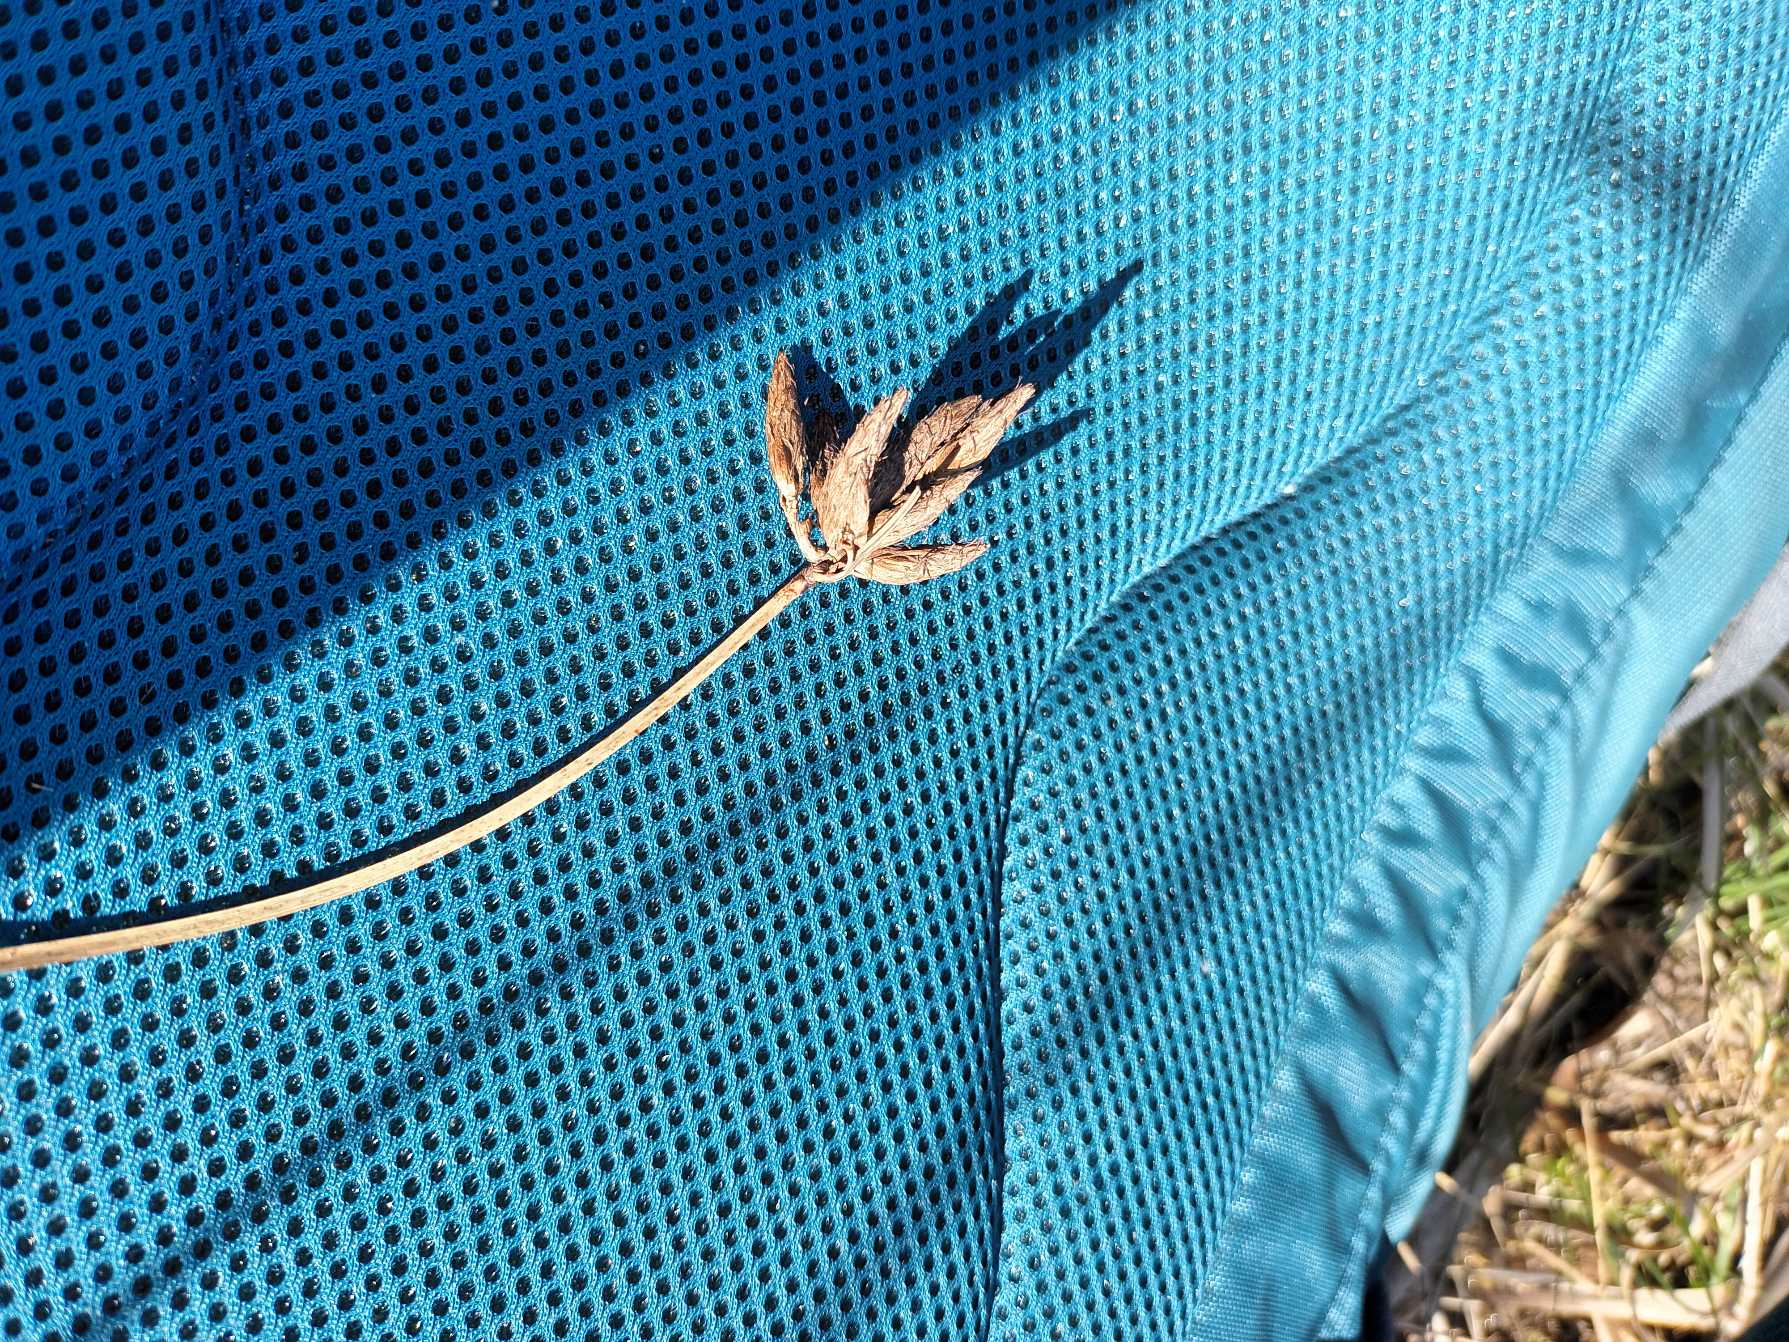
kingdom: Plantae
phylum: Tracheophyta
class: Liliopsida
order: Poales
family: Cyperaceae
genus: Bolboschoenus
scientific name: Bolboschoenus maritimus
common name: Strand-kogleaks
